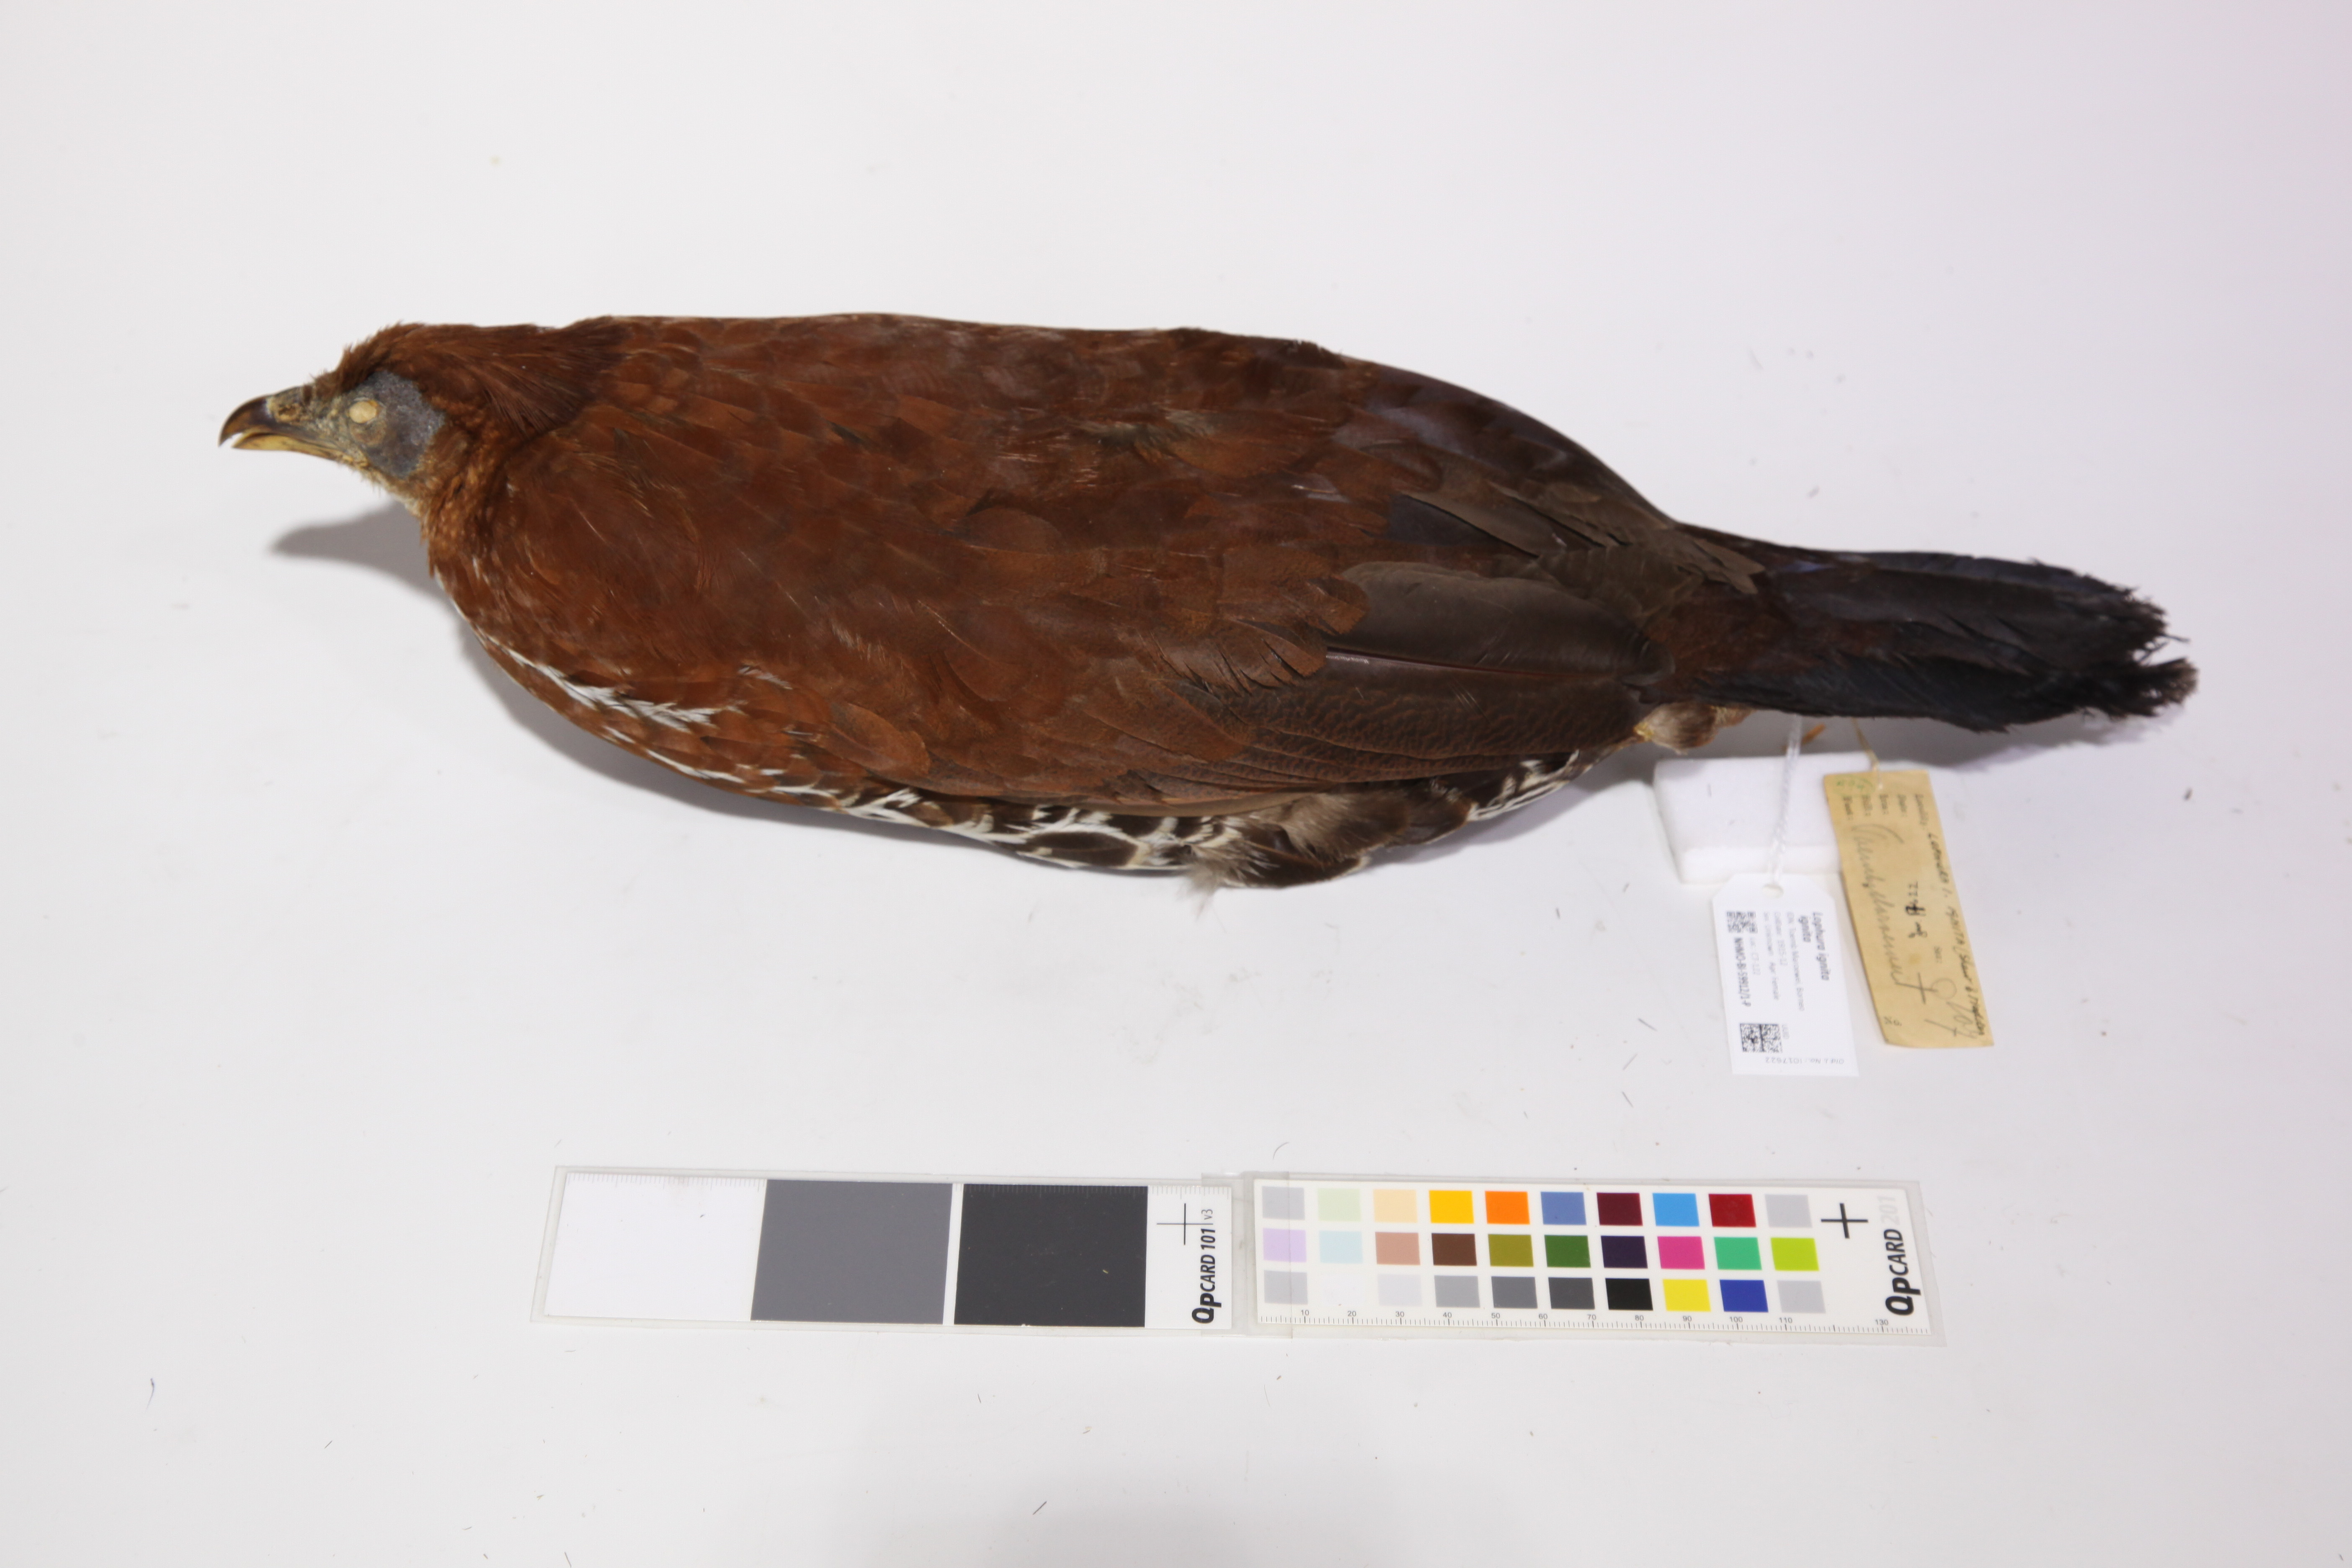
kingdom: Animalia
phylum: Chordata
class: Aves
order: Galliformes
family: Phasianidae
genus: Lophura
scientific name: Lophura ignita
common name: Crested fireback
